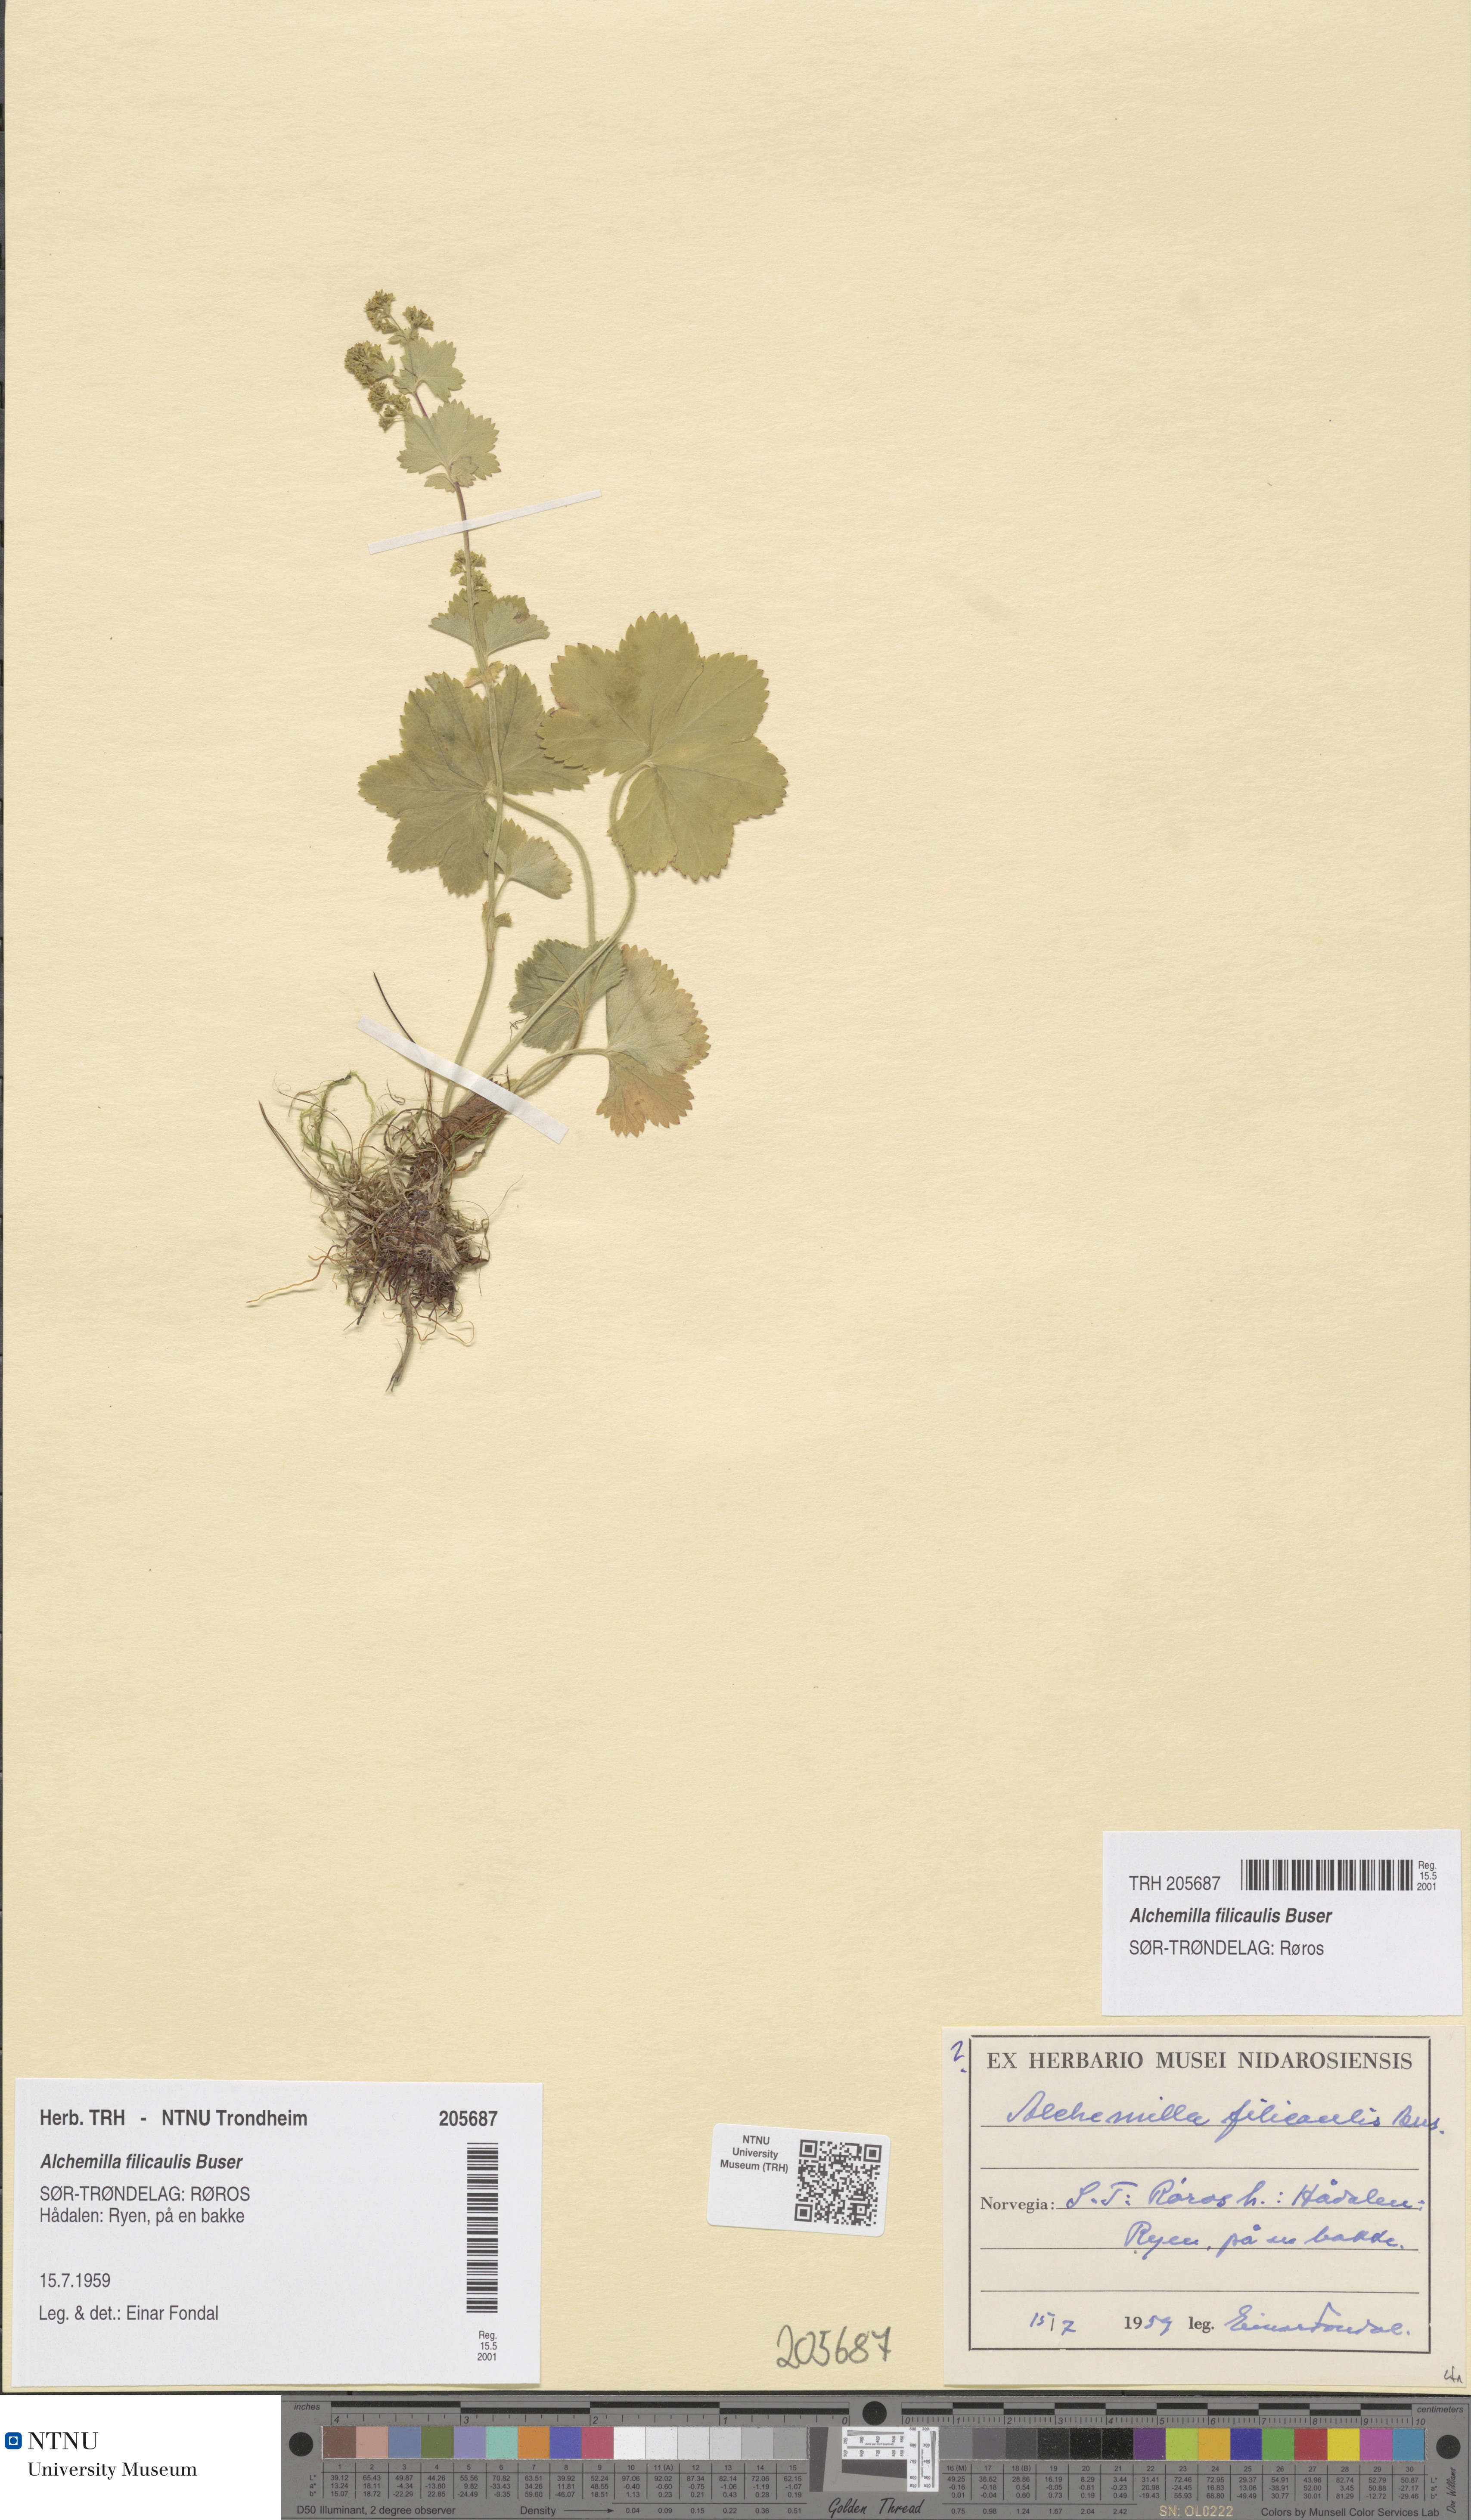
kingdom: Plantae
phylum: Tracheophyta
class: Magnoliopsida
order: Rosales
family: Rosaceae
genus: Alchemilla
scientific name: Alchemilla filicaulis
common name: Hairy lady's-mantle
